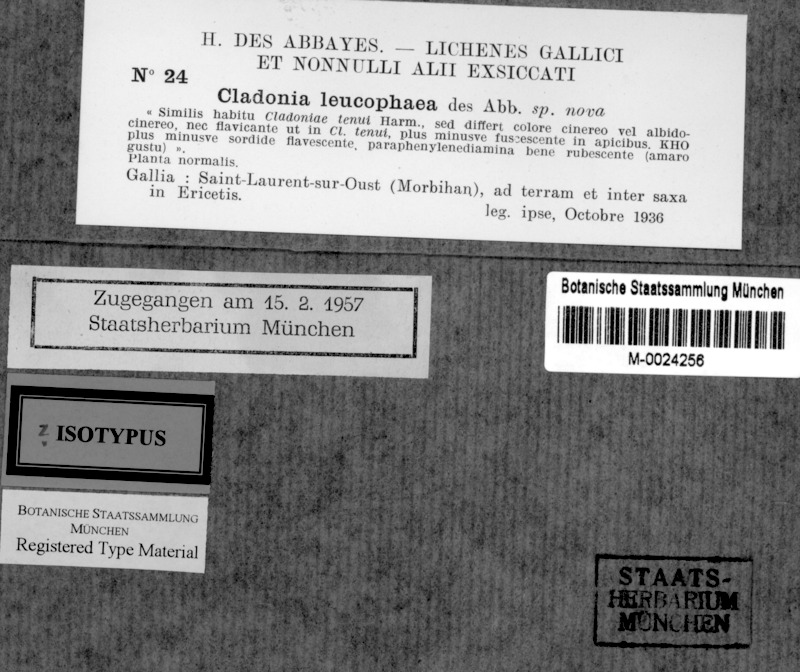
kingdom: Fungi
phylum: Ascomycota
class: Lecanoromycetes
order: Lecanorales
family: Cladoniaceae
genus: Cladonia
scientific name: Cladonia ciliata
